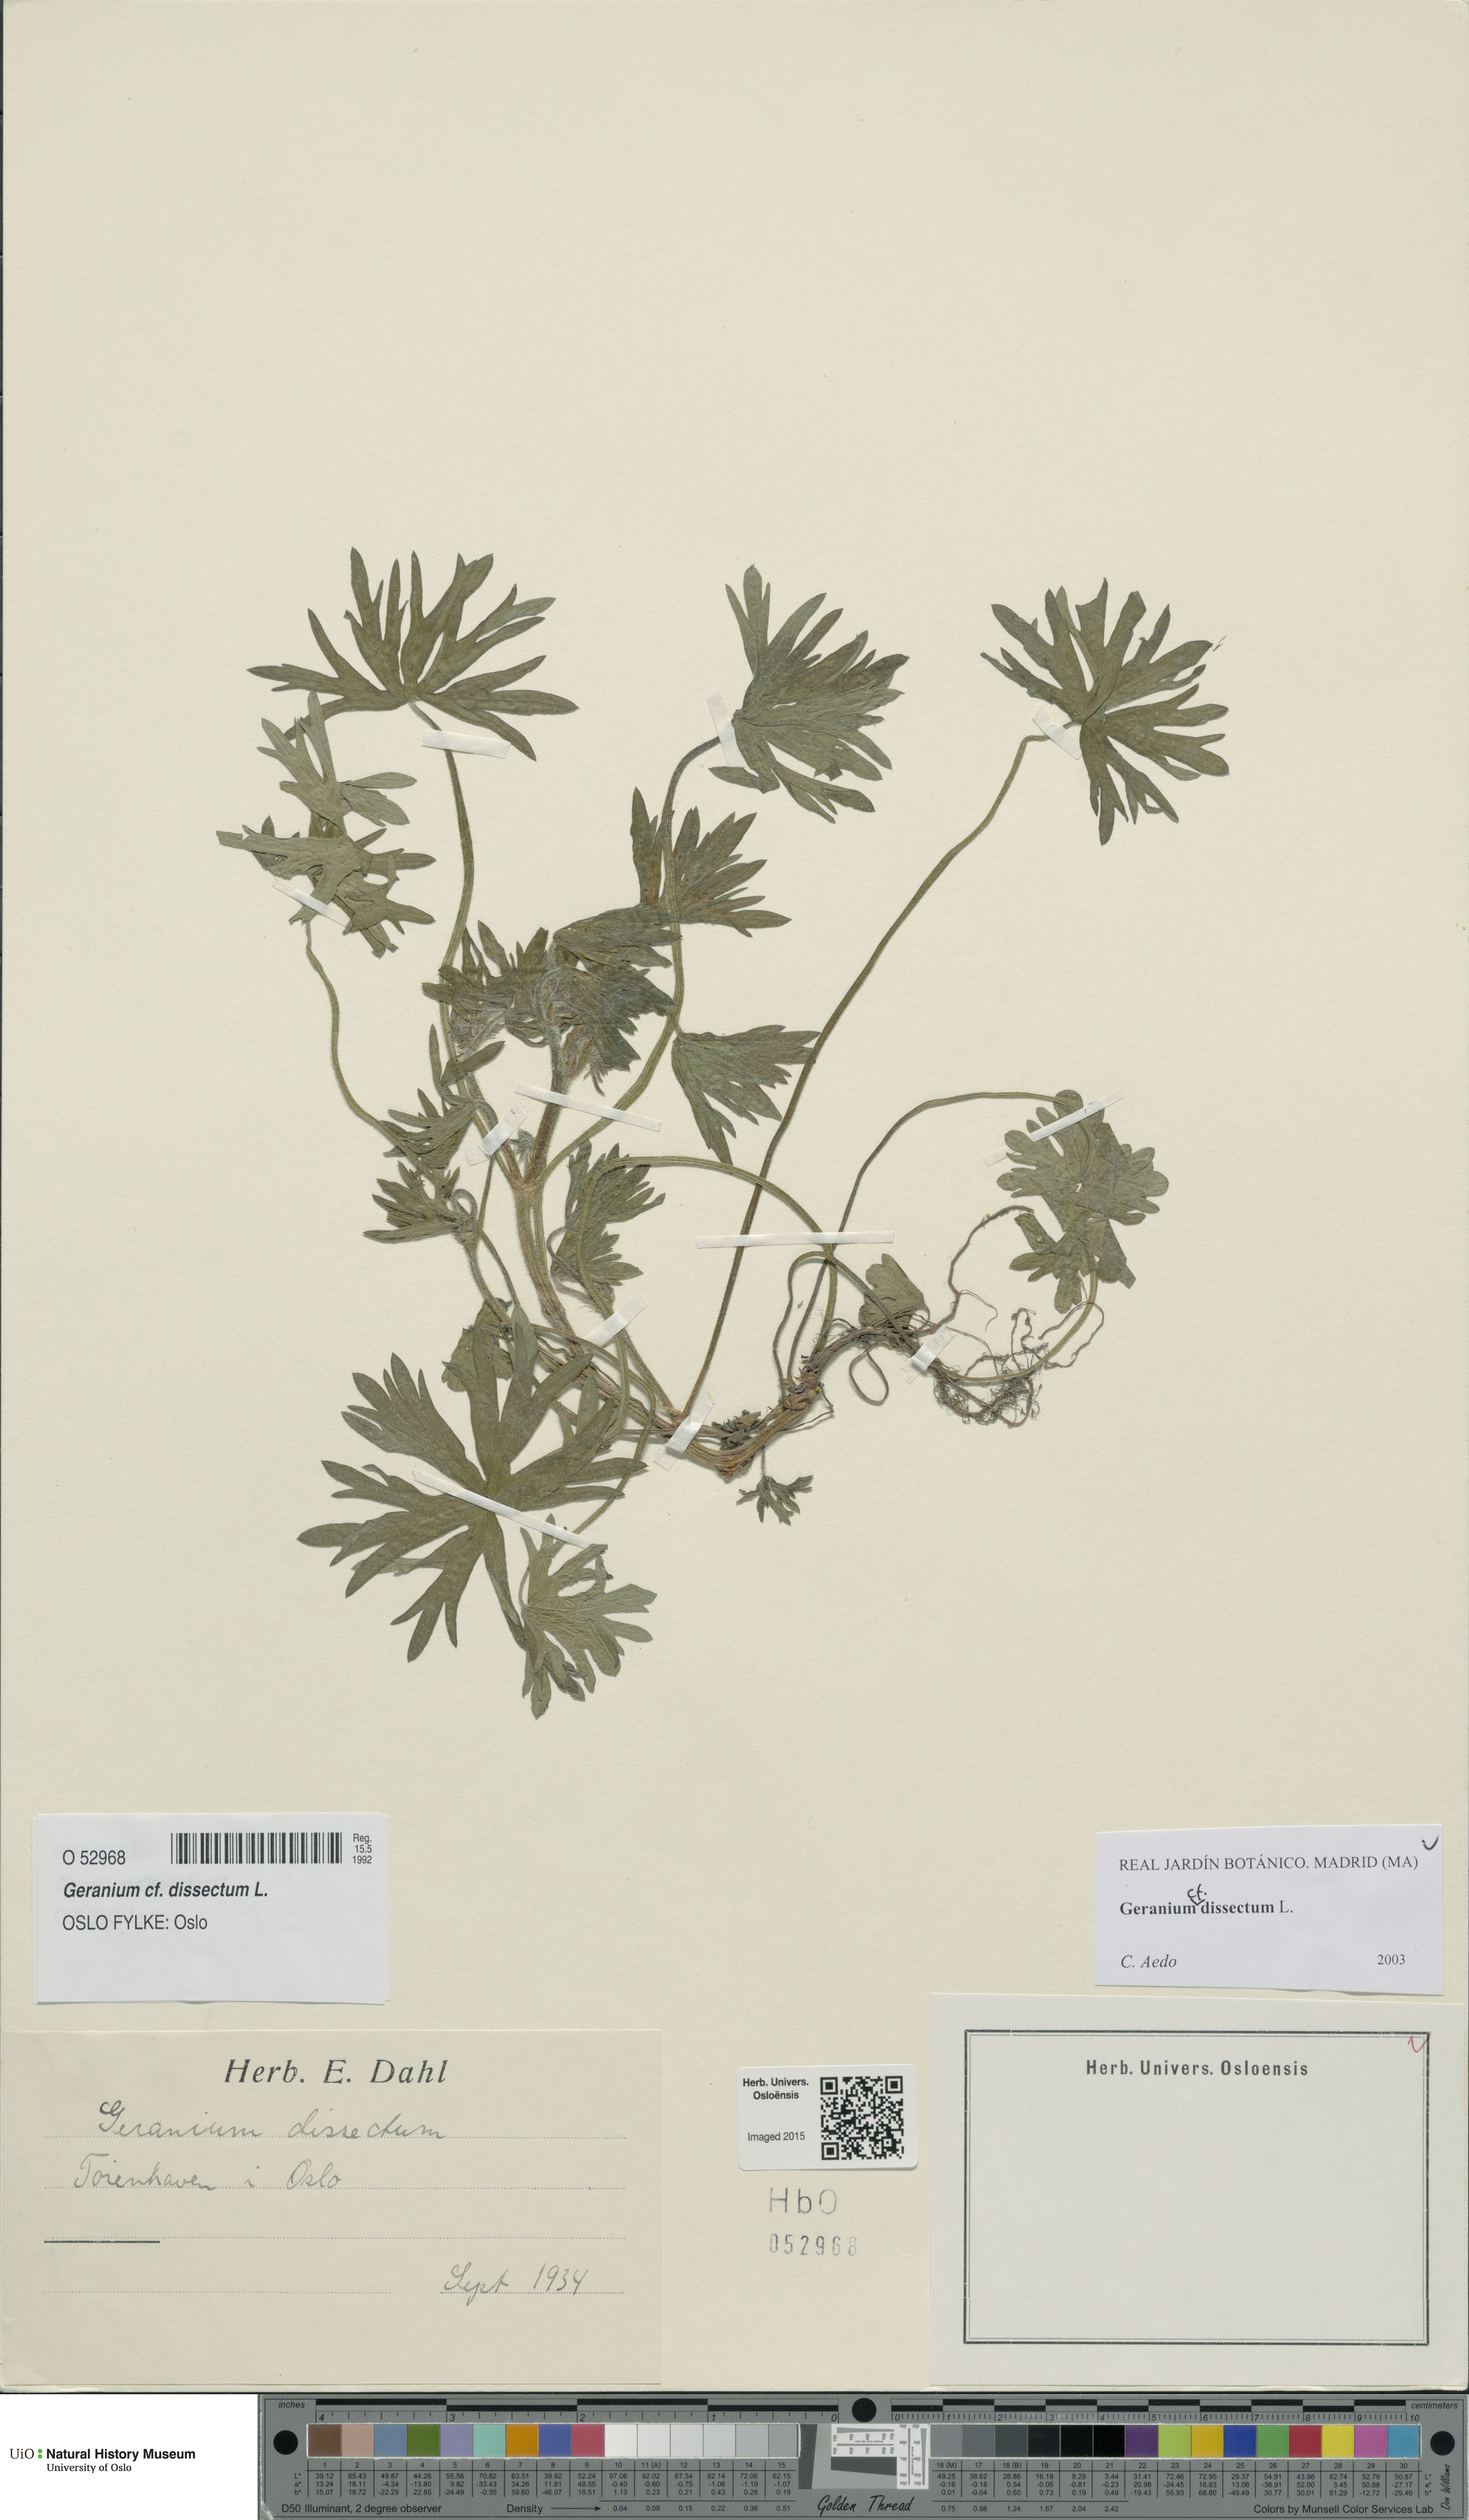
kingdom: Plantae
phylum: Tracheophyta
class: Magnoliopsida
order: Geraniales
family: Geraniaceae
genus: Geranium
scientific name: Geranium dissectum
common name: Cut-leaved crane's-bill
